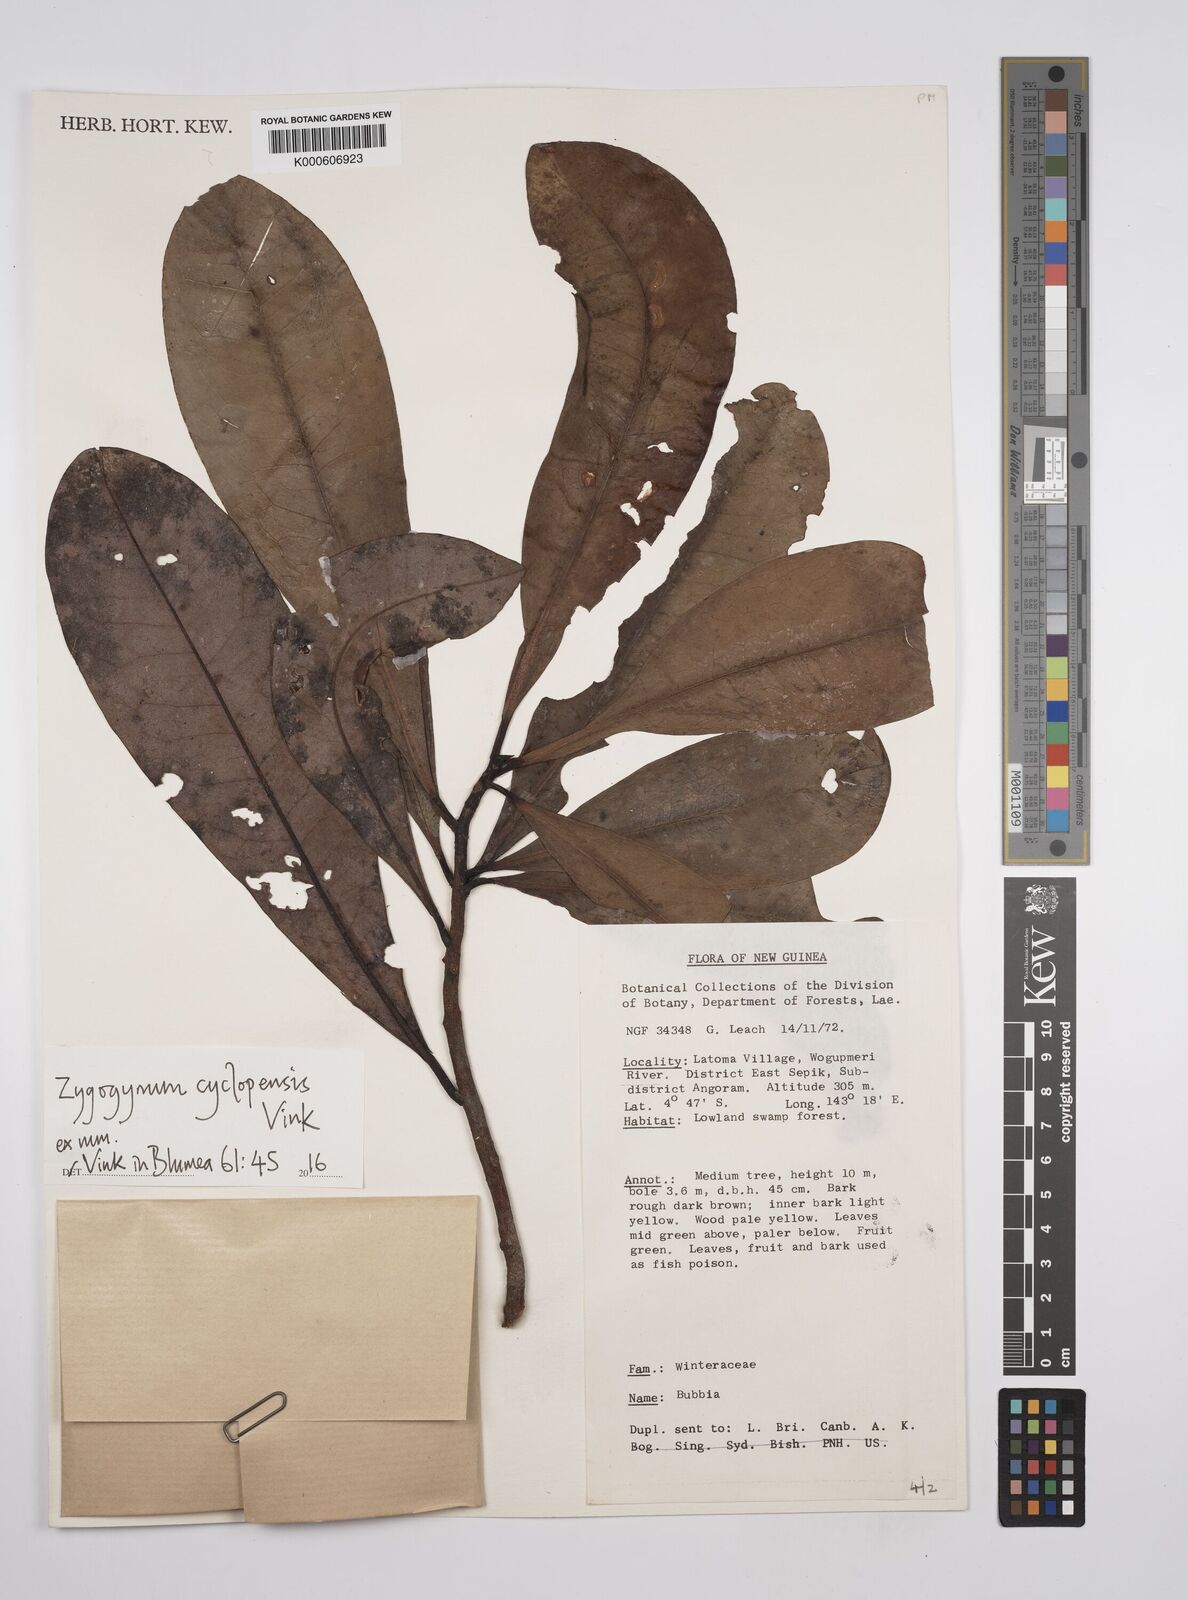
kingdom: Plantae
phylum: Tracheophyta
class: Magnoliopsida
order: Canellales
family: Winteraceae
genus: Zygogynum
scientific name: Zygogynum cyclopensis
